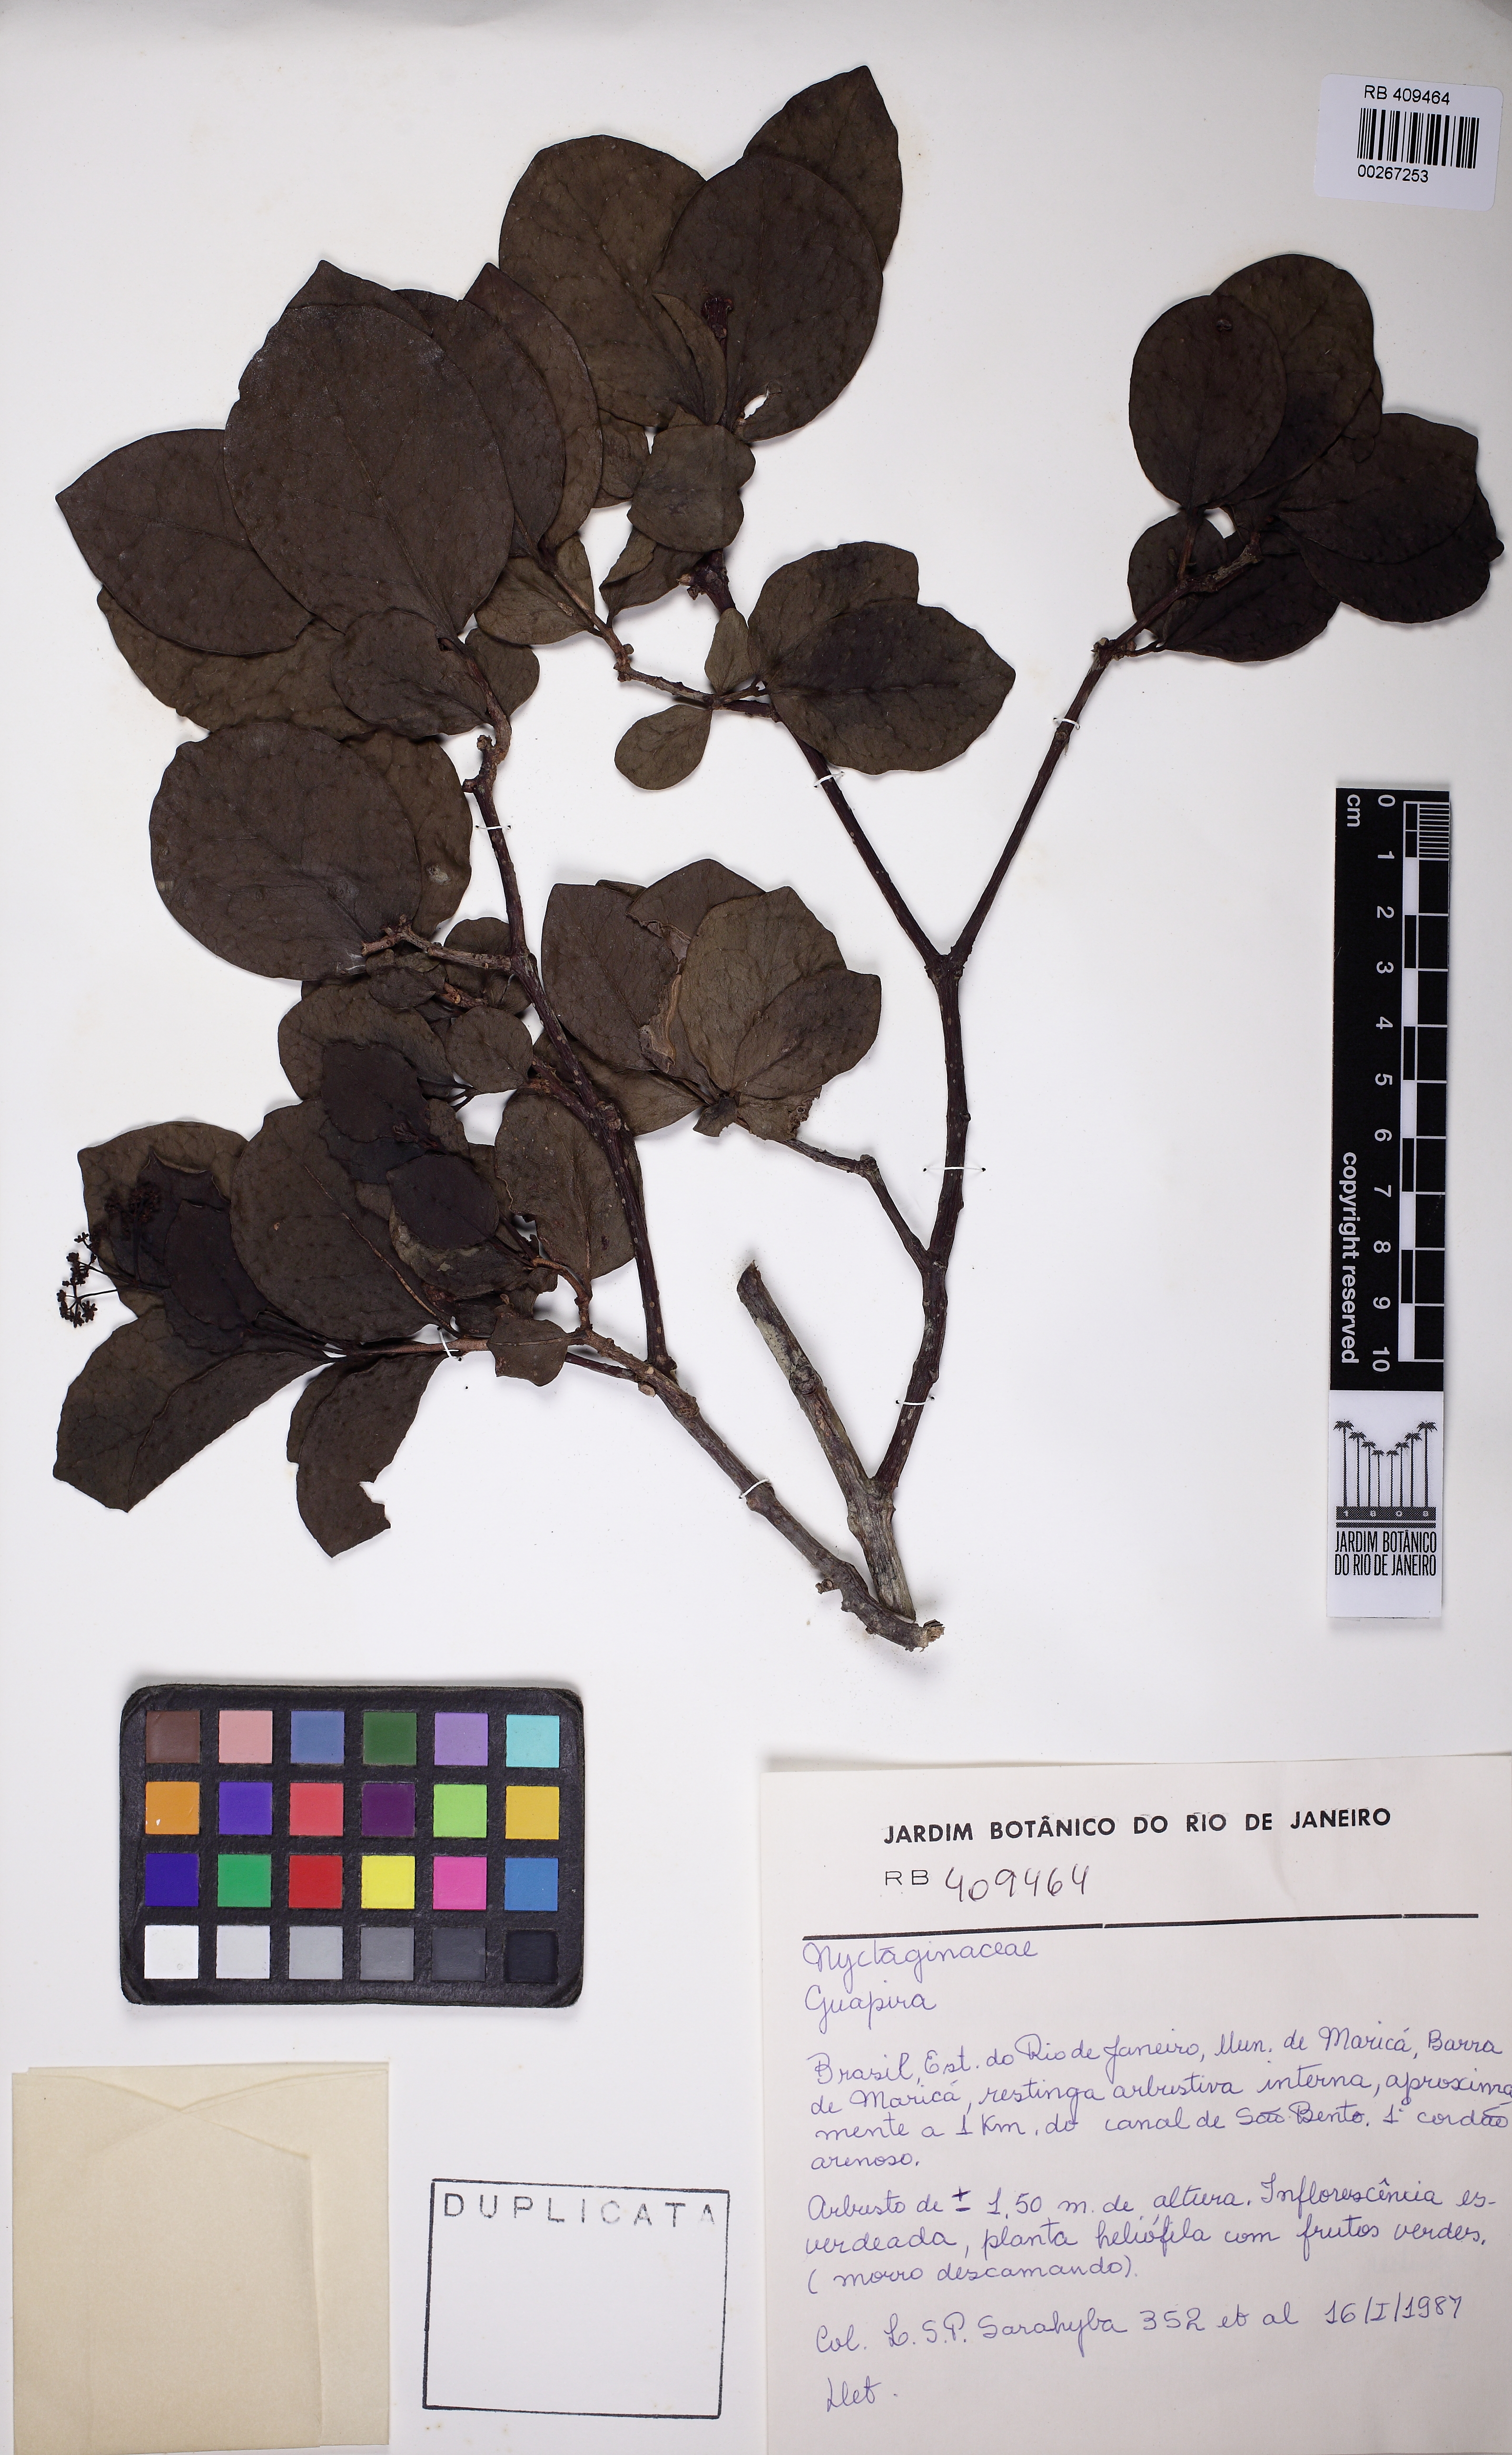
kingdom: Plantae
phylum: Tracheophyta
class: Magnoliopsida
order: Caryophyllales
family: Nyctaginaceae
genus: Guapira
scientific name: Guapira obtusata
